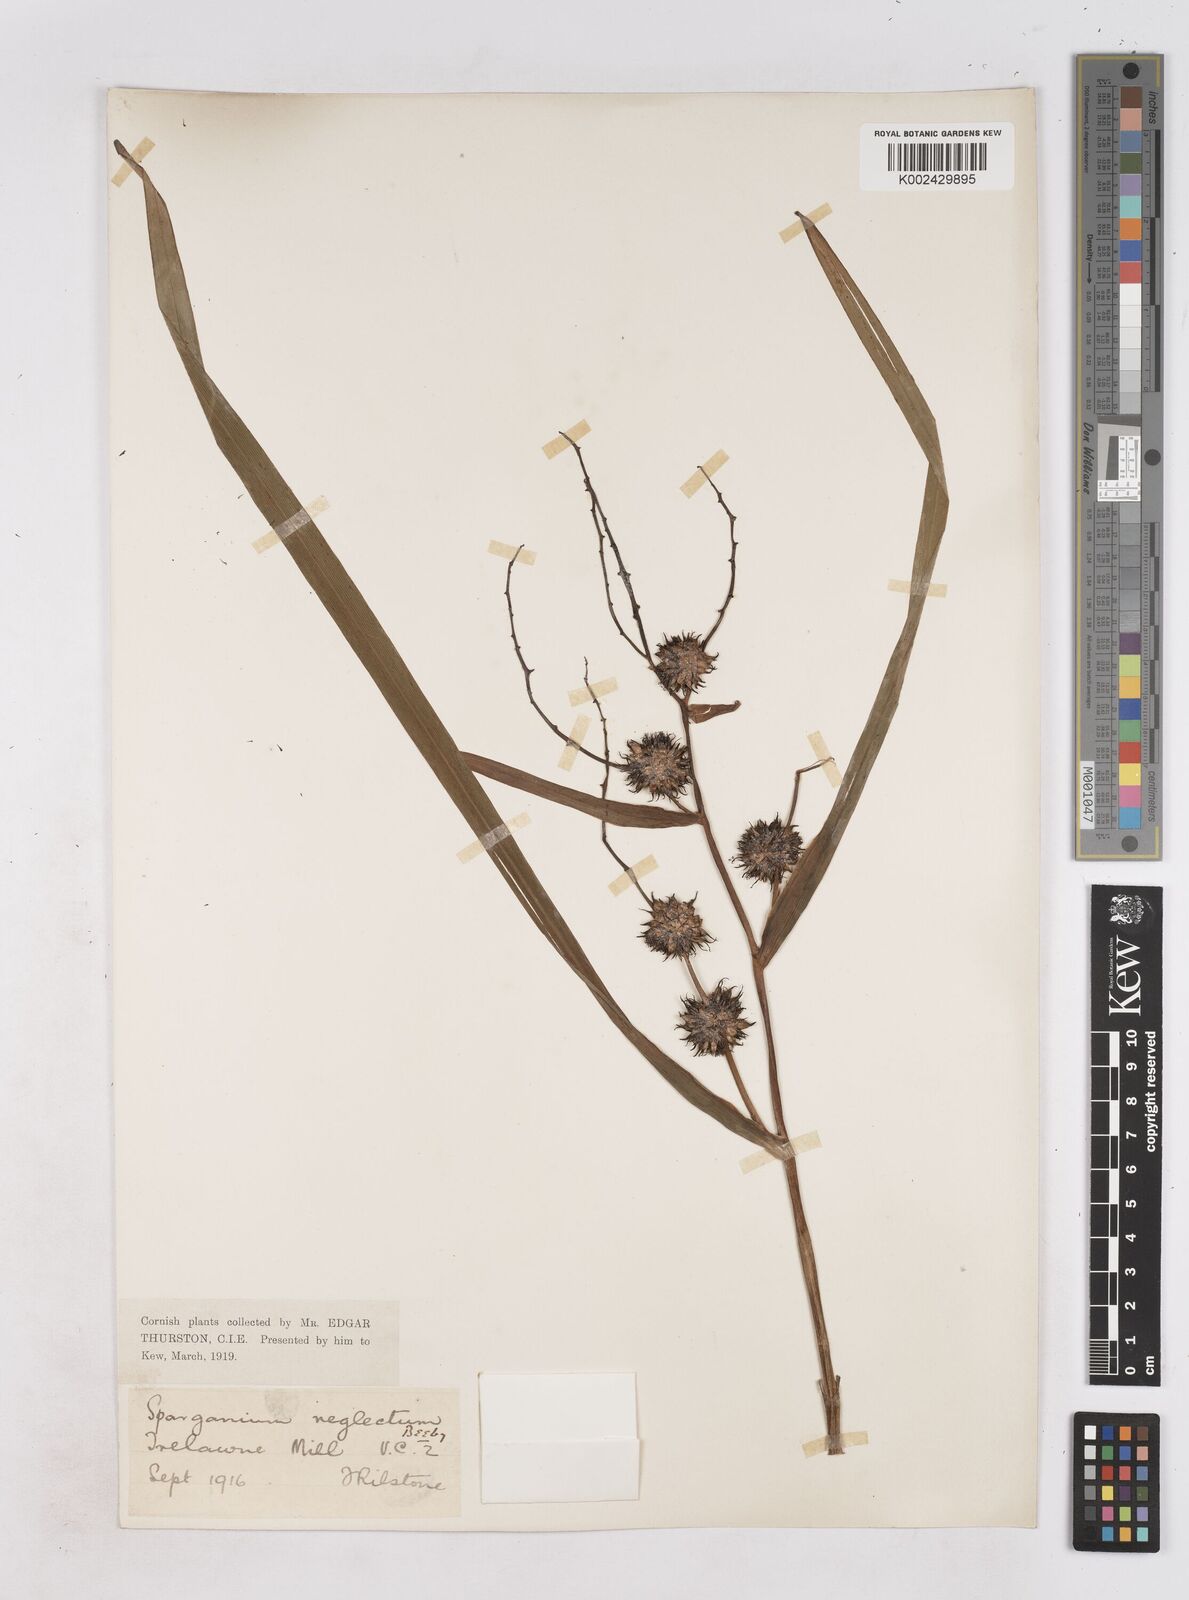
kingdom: Plantae
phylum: Tracheophyta
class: Liliopsida
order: Poales
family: Typhaceae
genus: Sparganium
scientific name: Sparganium erectum
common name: Branched bur-reed
